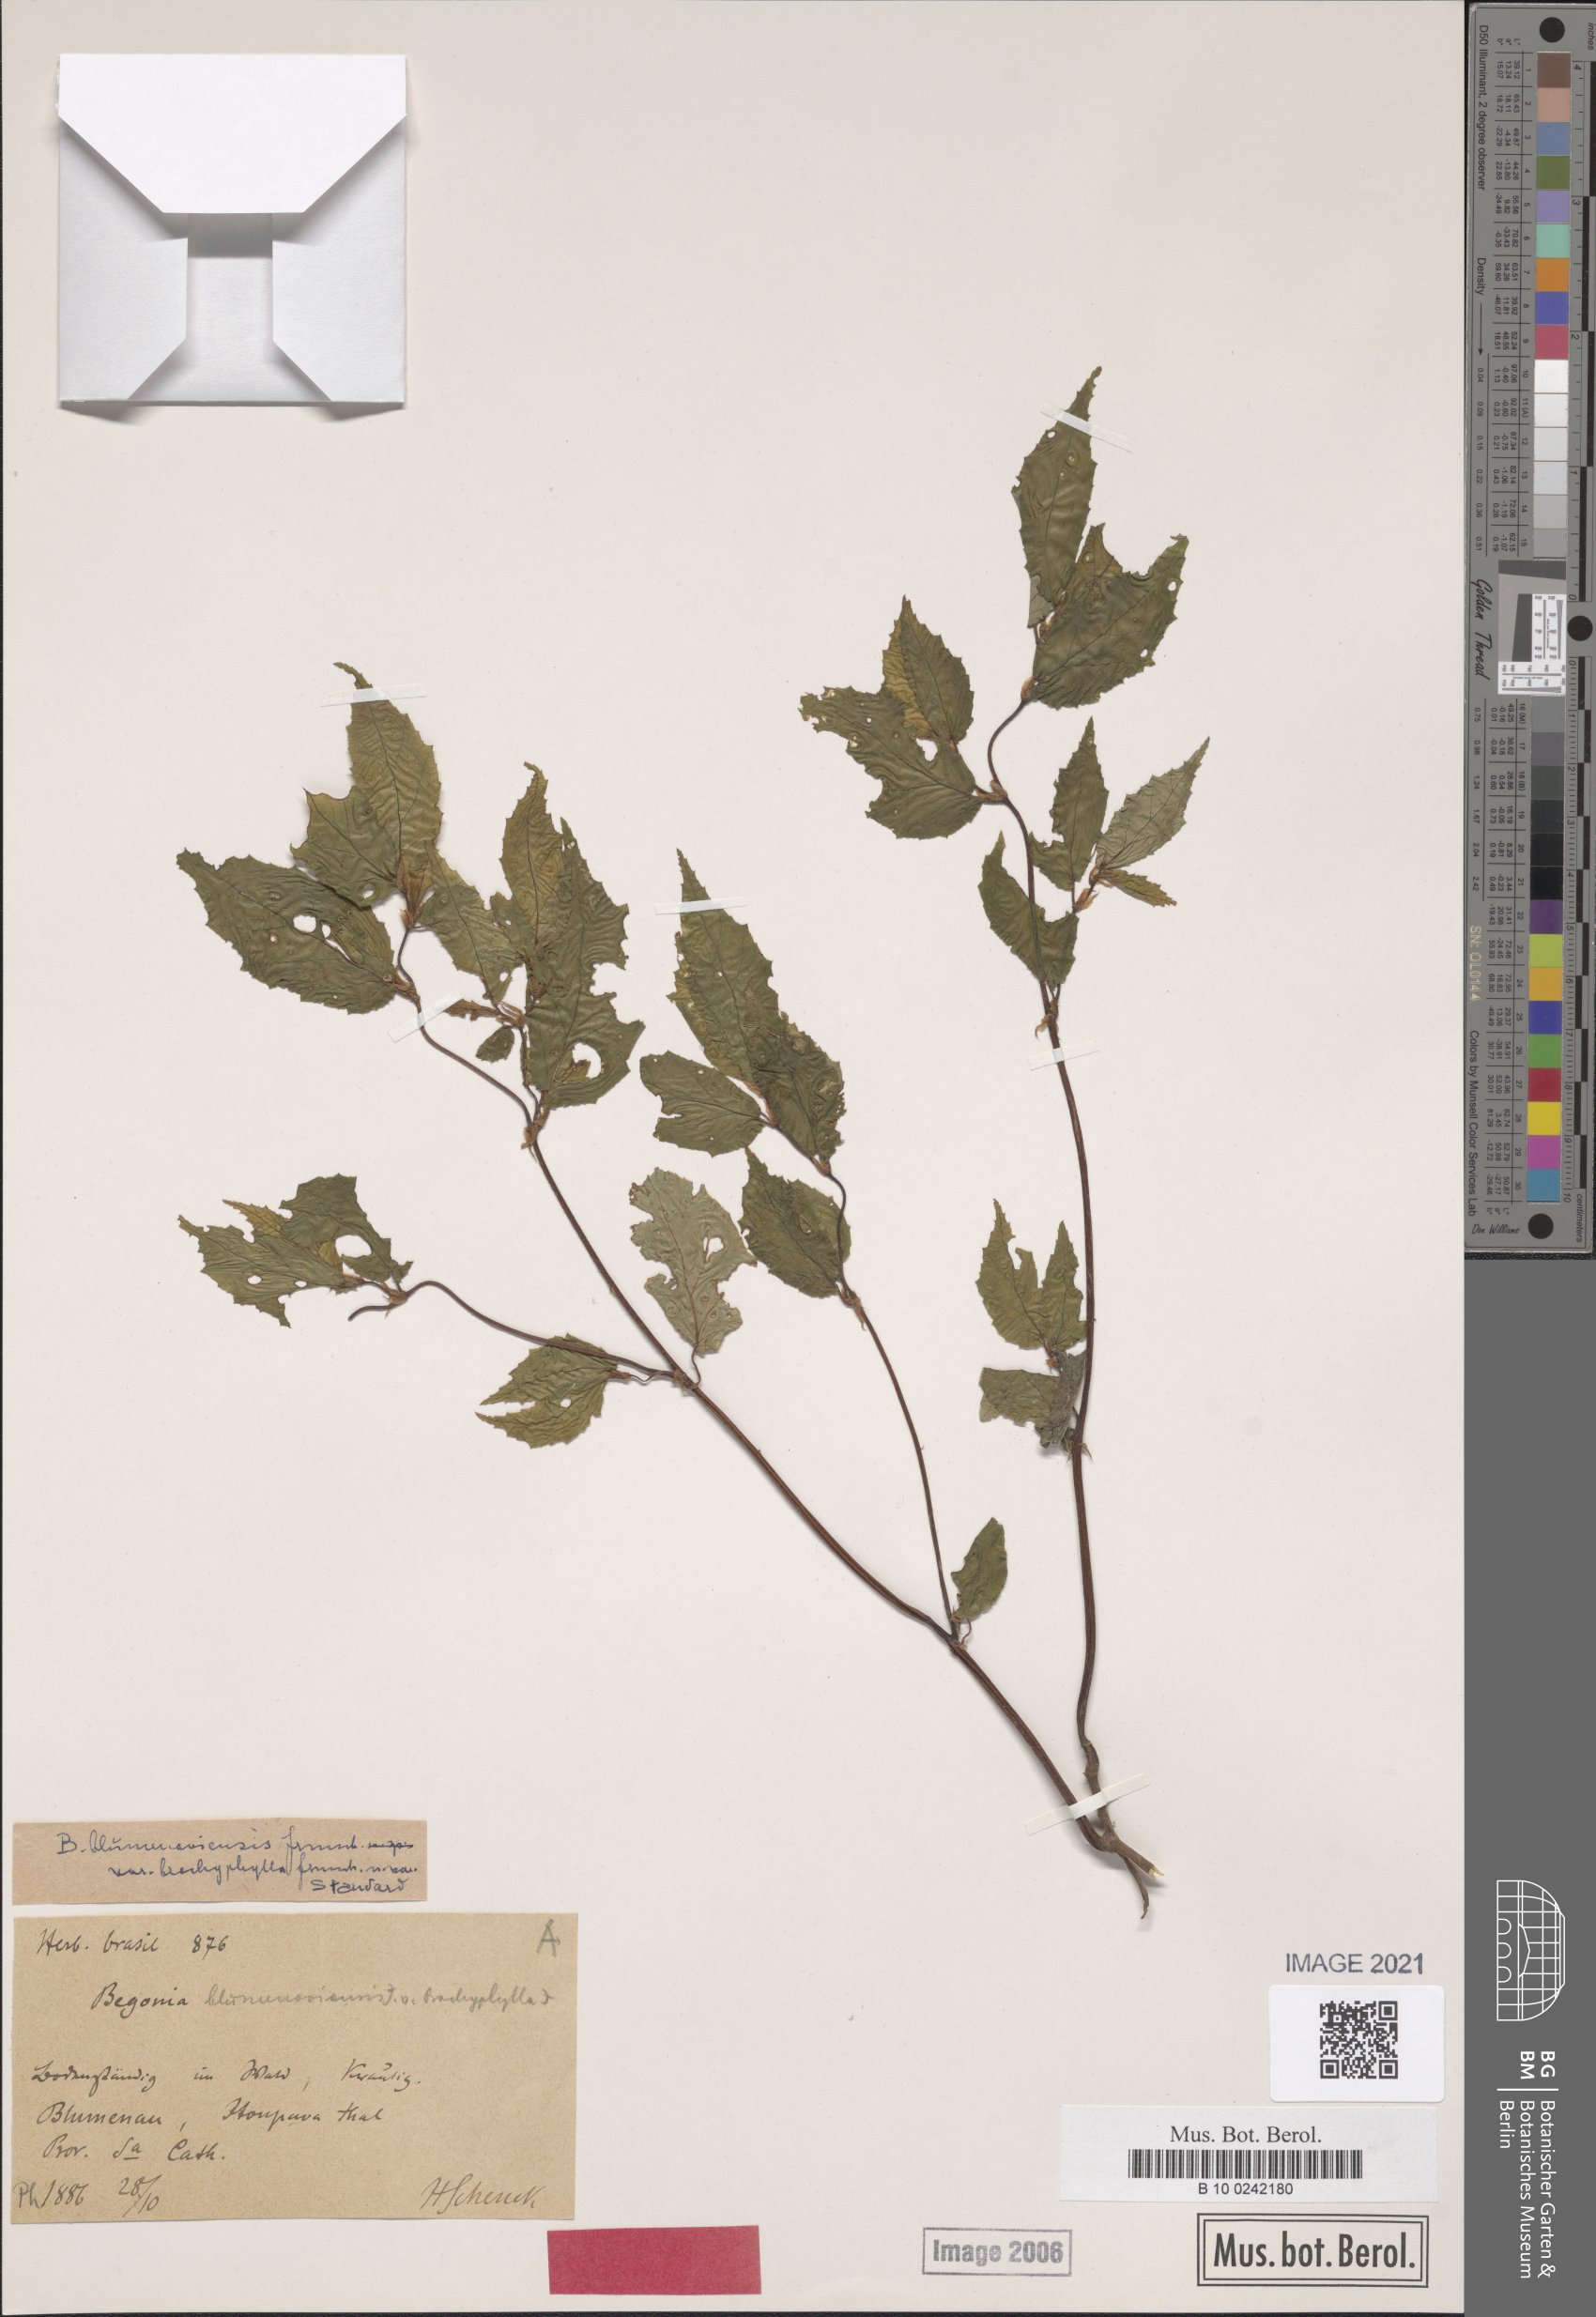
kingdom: Plantae
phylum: Tracheophyta
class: Magnoliopsida
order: Cucurbitales
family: Begoniaceae
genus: Begonia
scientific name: Begonia polyandra
